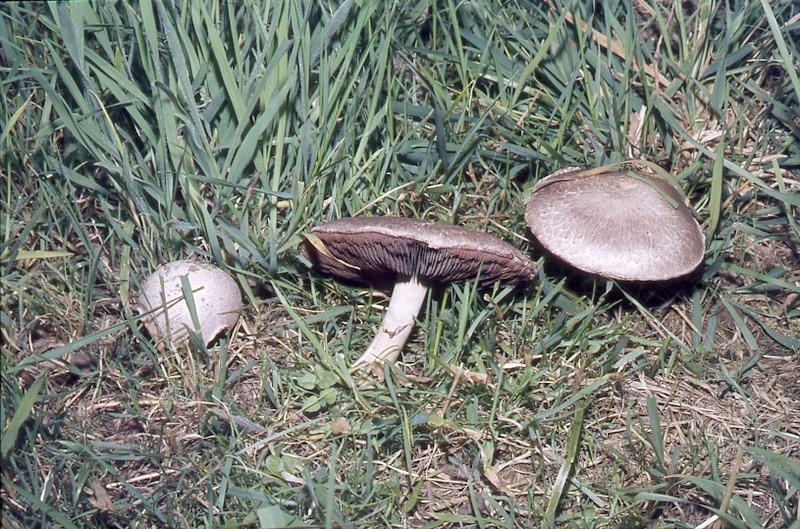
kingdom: Fungi
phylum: Basidiomycota
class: Agaricomycetes
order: Agaricales
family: Agaricaceae
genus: Agaricus
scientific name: Agaricus campestris
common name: Field mushroom
